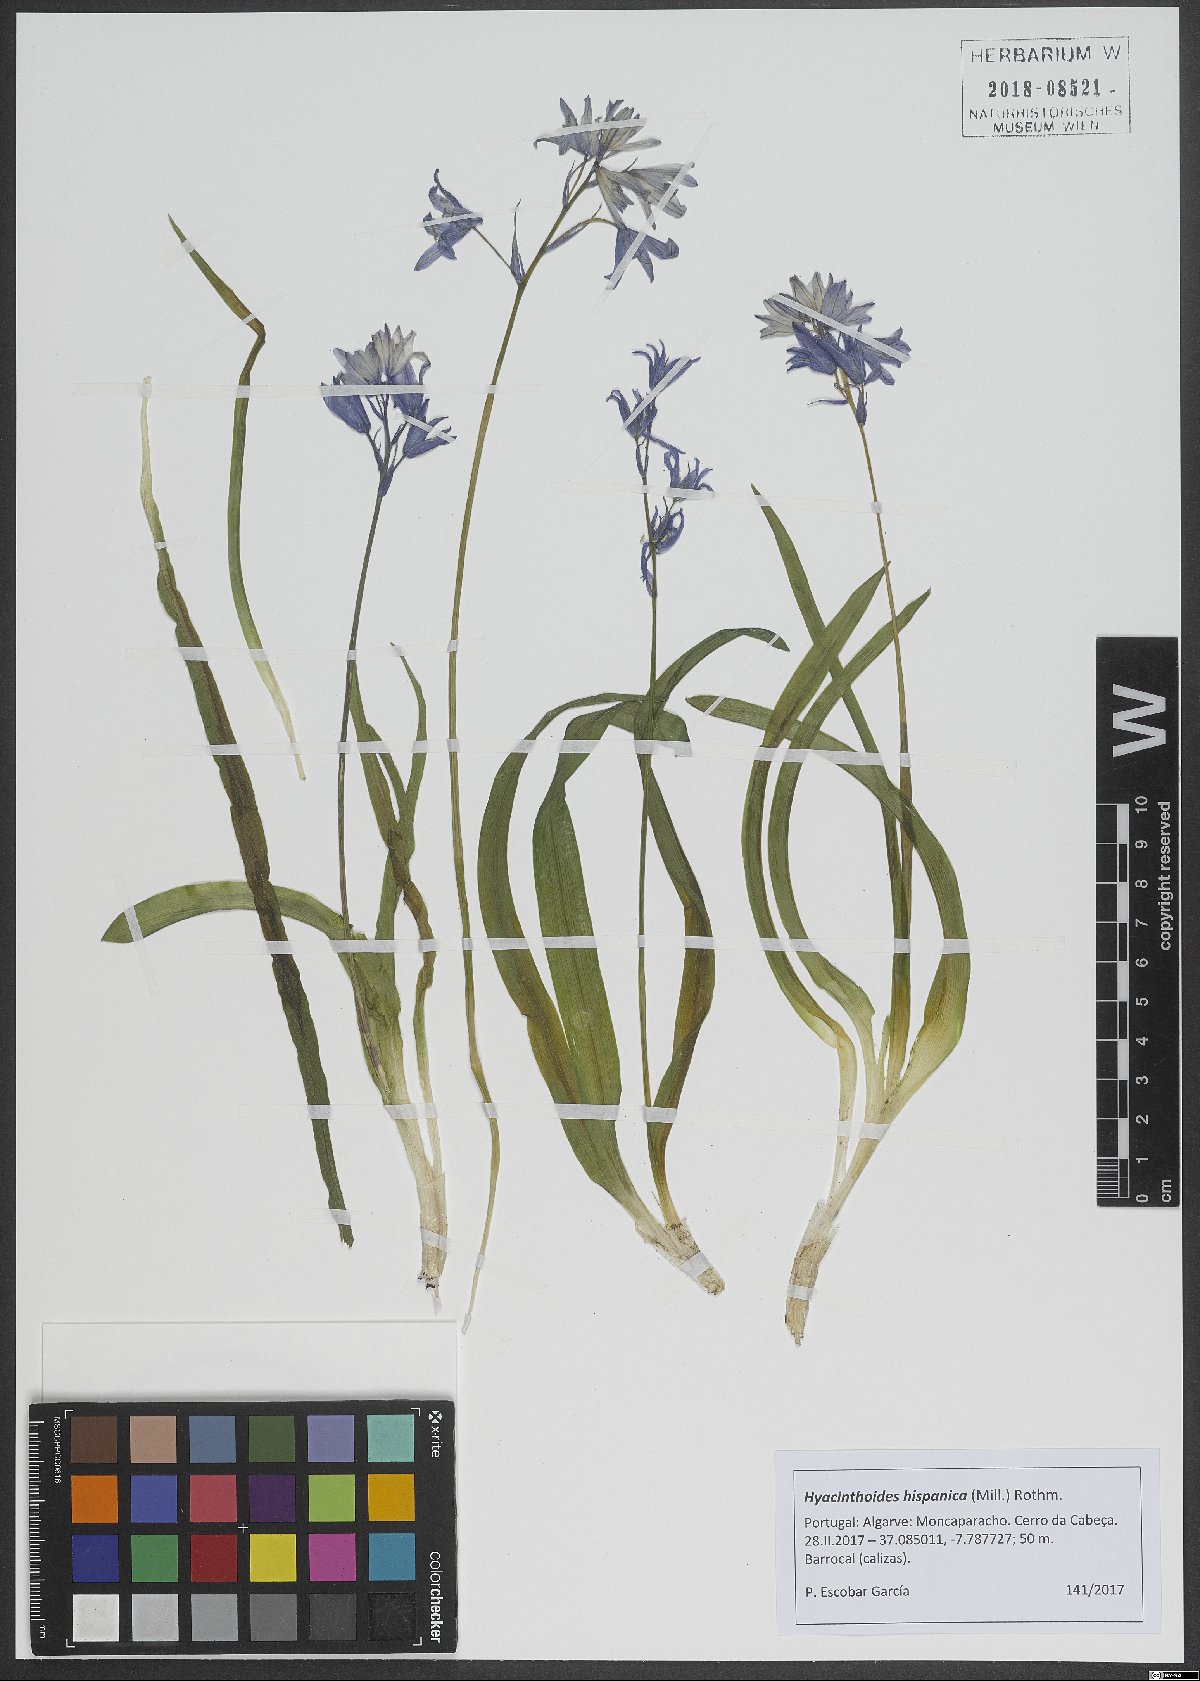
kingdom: Plantae
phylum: Tracheophyta
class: Liliopsida
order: Asparagales
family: Asparagaceae
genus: Hyacinthoides
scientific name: Hyacinthoides hispanica
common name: Spanish bluebell
